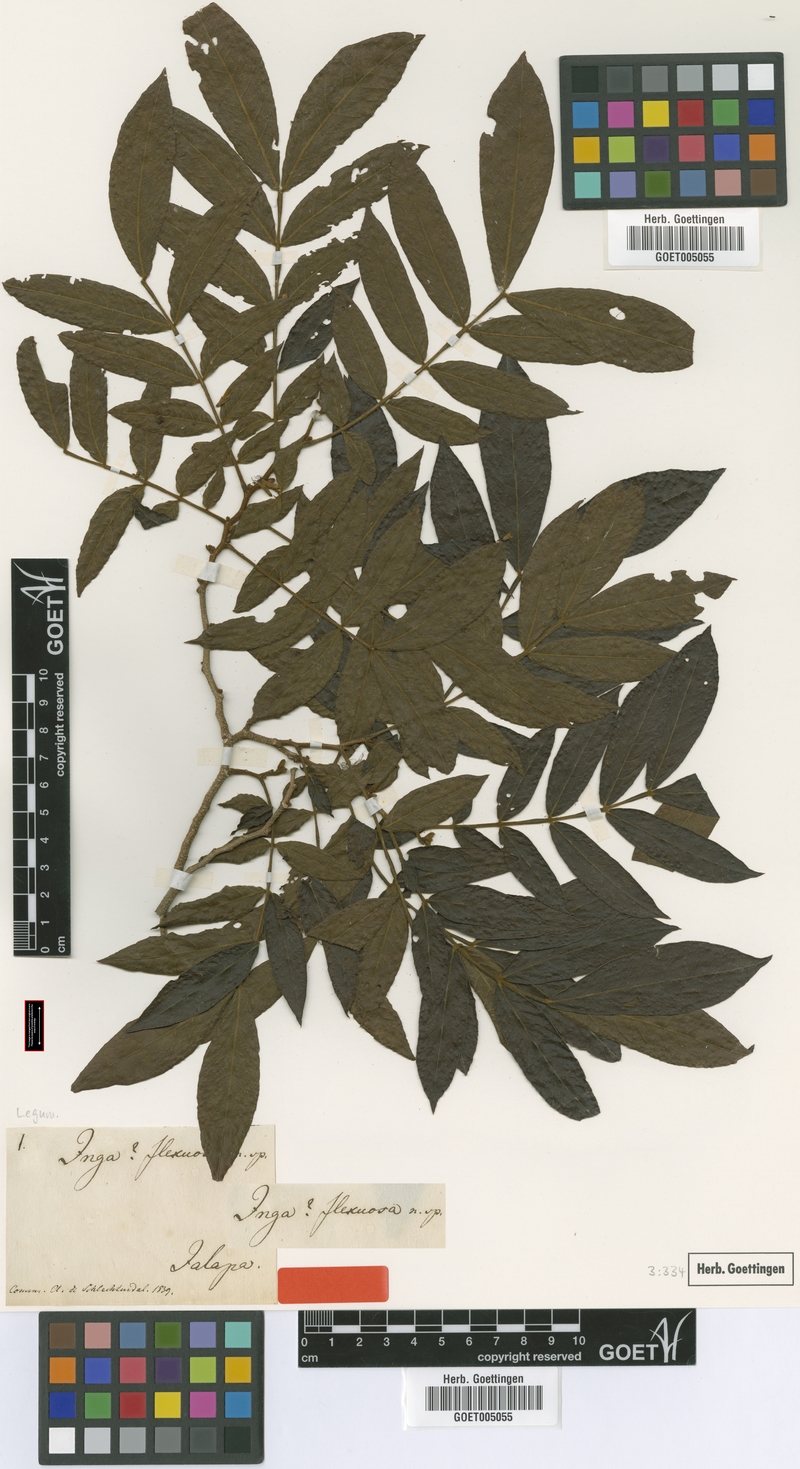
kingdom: Plantae
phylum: Tracheophyta
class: Magnoliopsida
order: Fabales
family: Fabaceae
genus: Inga
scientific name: Inga flexuosa
